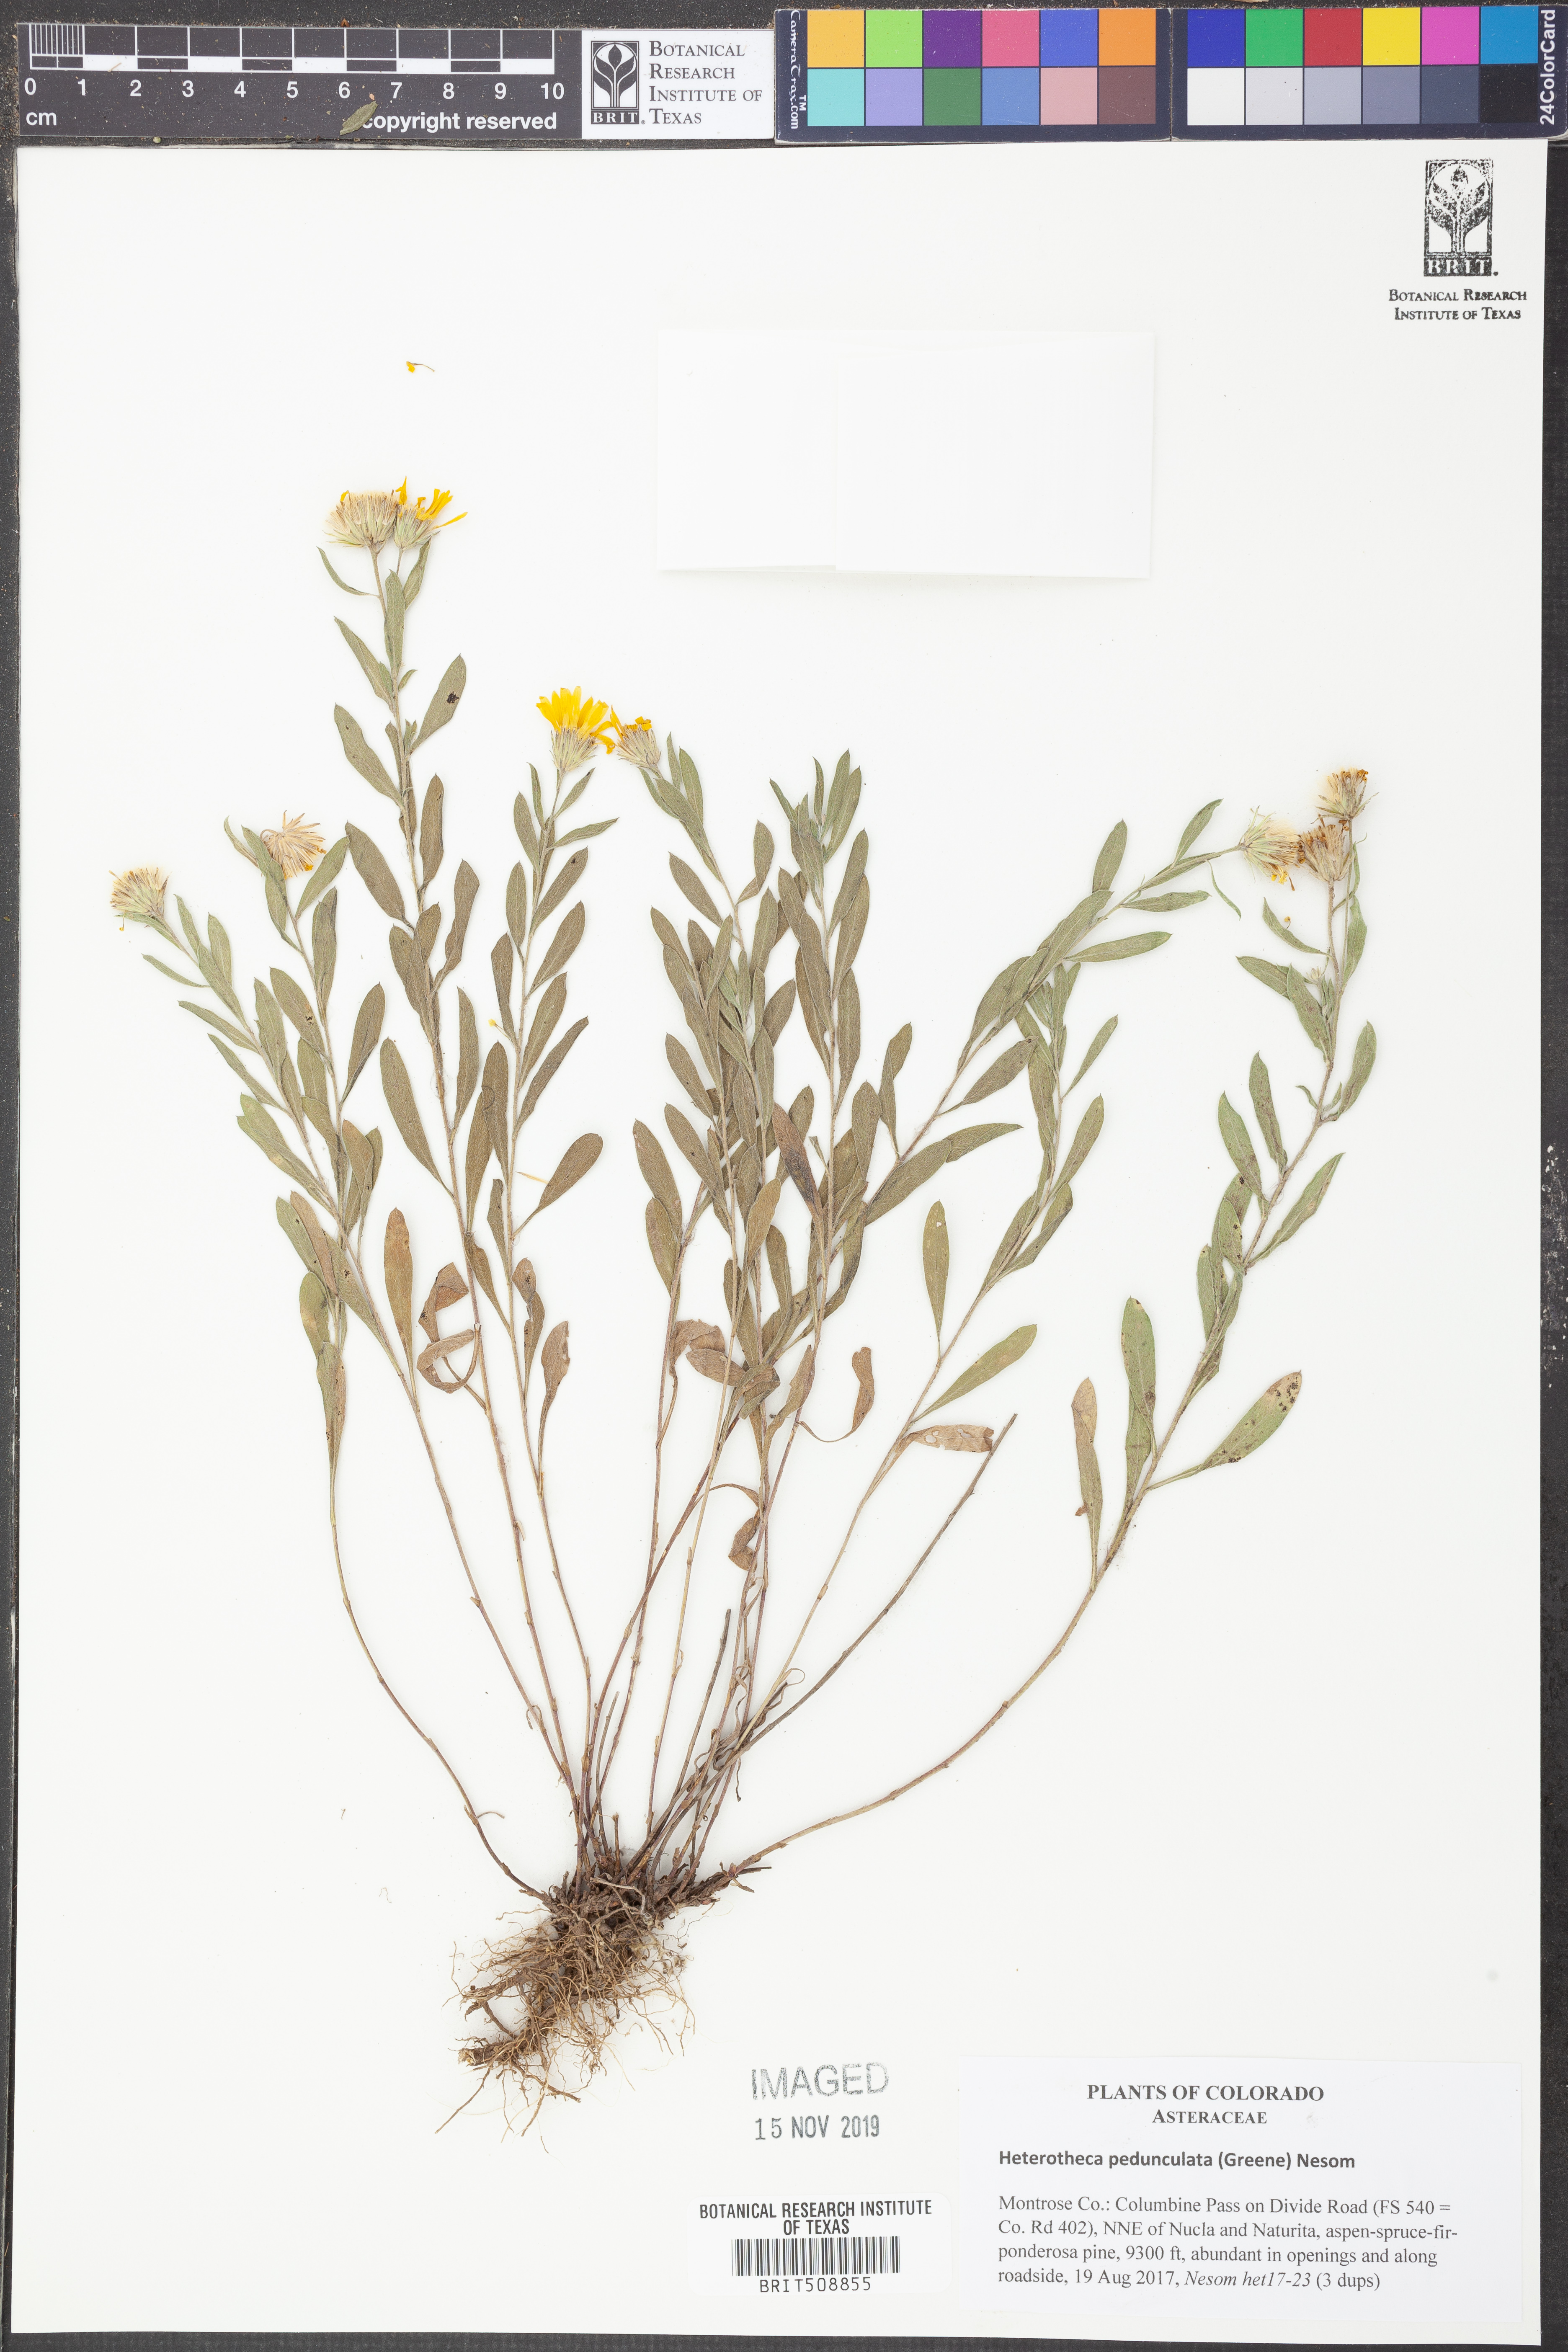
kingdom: Plantae
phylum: Tracheophyta
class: Magnoliopsida
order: Asterales
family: Asteraceae
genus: Heterotheca
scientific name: Heterotheca pedunculata
